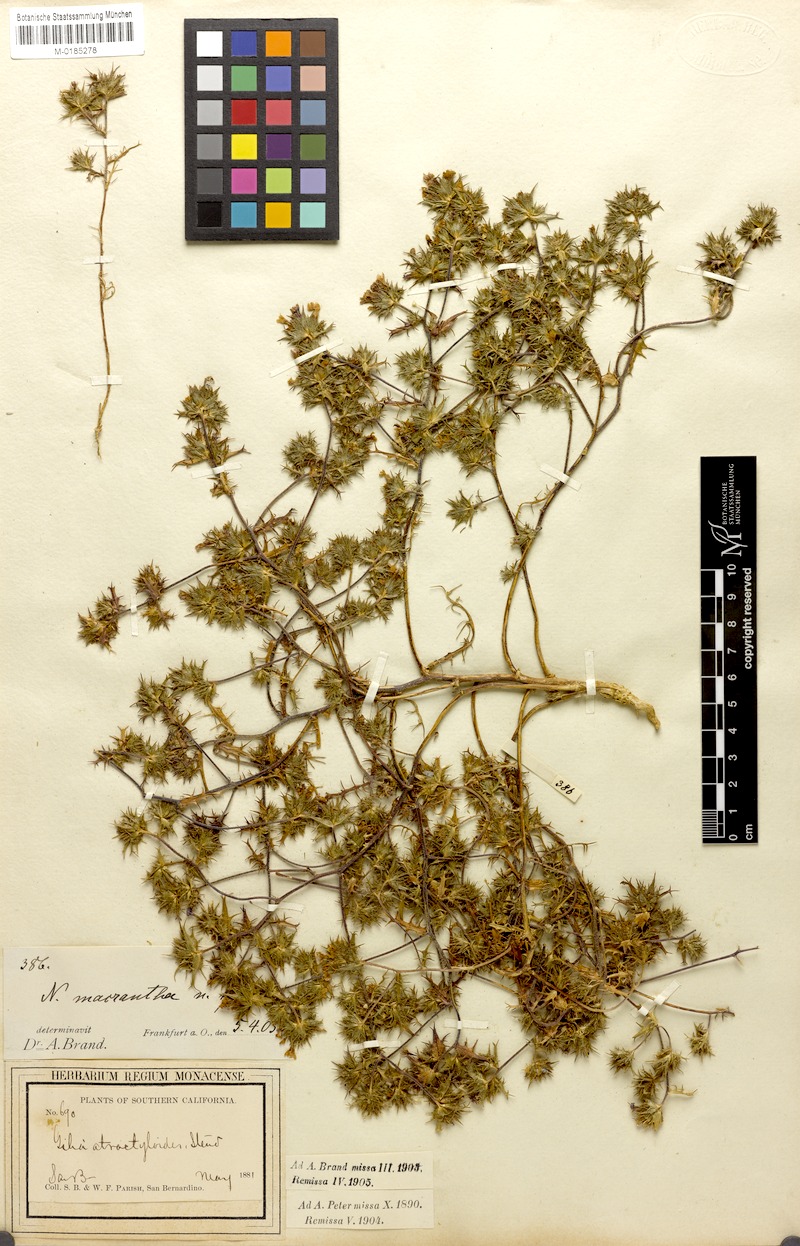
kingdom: Plantae
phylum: Tracheophyta
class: Magnoliopsida
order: Ericales
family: Polemoniaceae
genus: Navarretia
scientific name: Navarretia atractyloides
